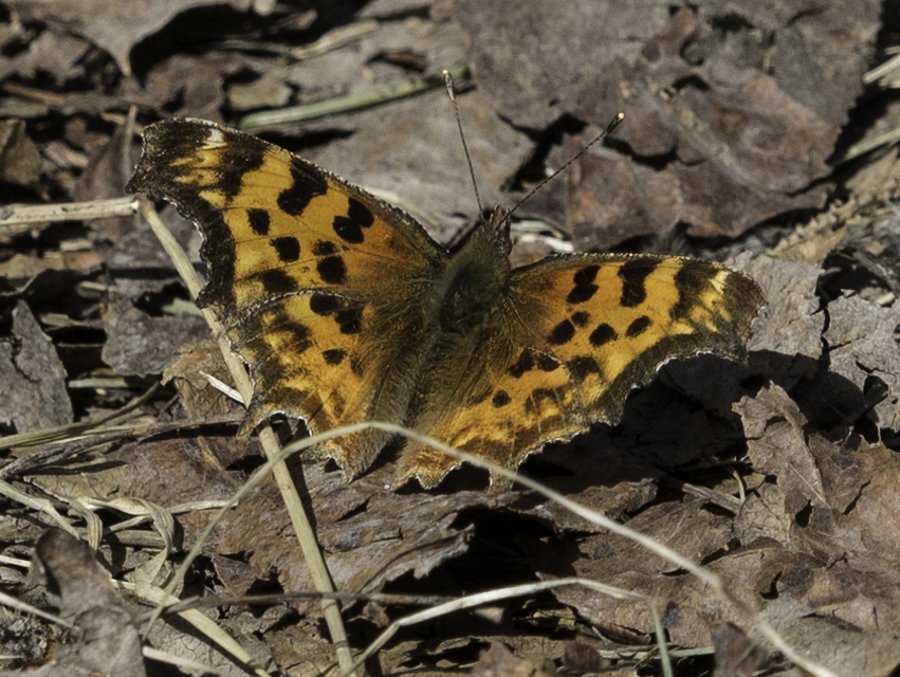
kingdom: Animalia
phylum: Arthropoda
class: Insecta
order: Lepidoptera
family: Nymphalidae
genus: Polygonia
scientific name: Polygonia satyrus
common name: Satyr Comma
